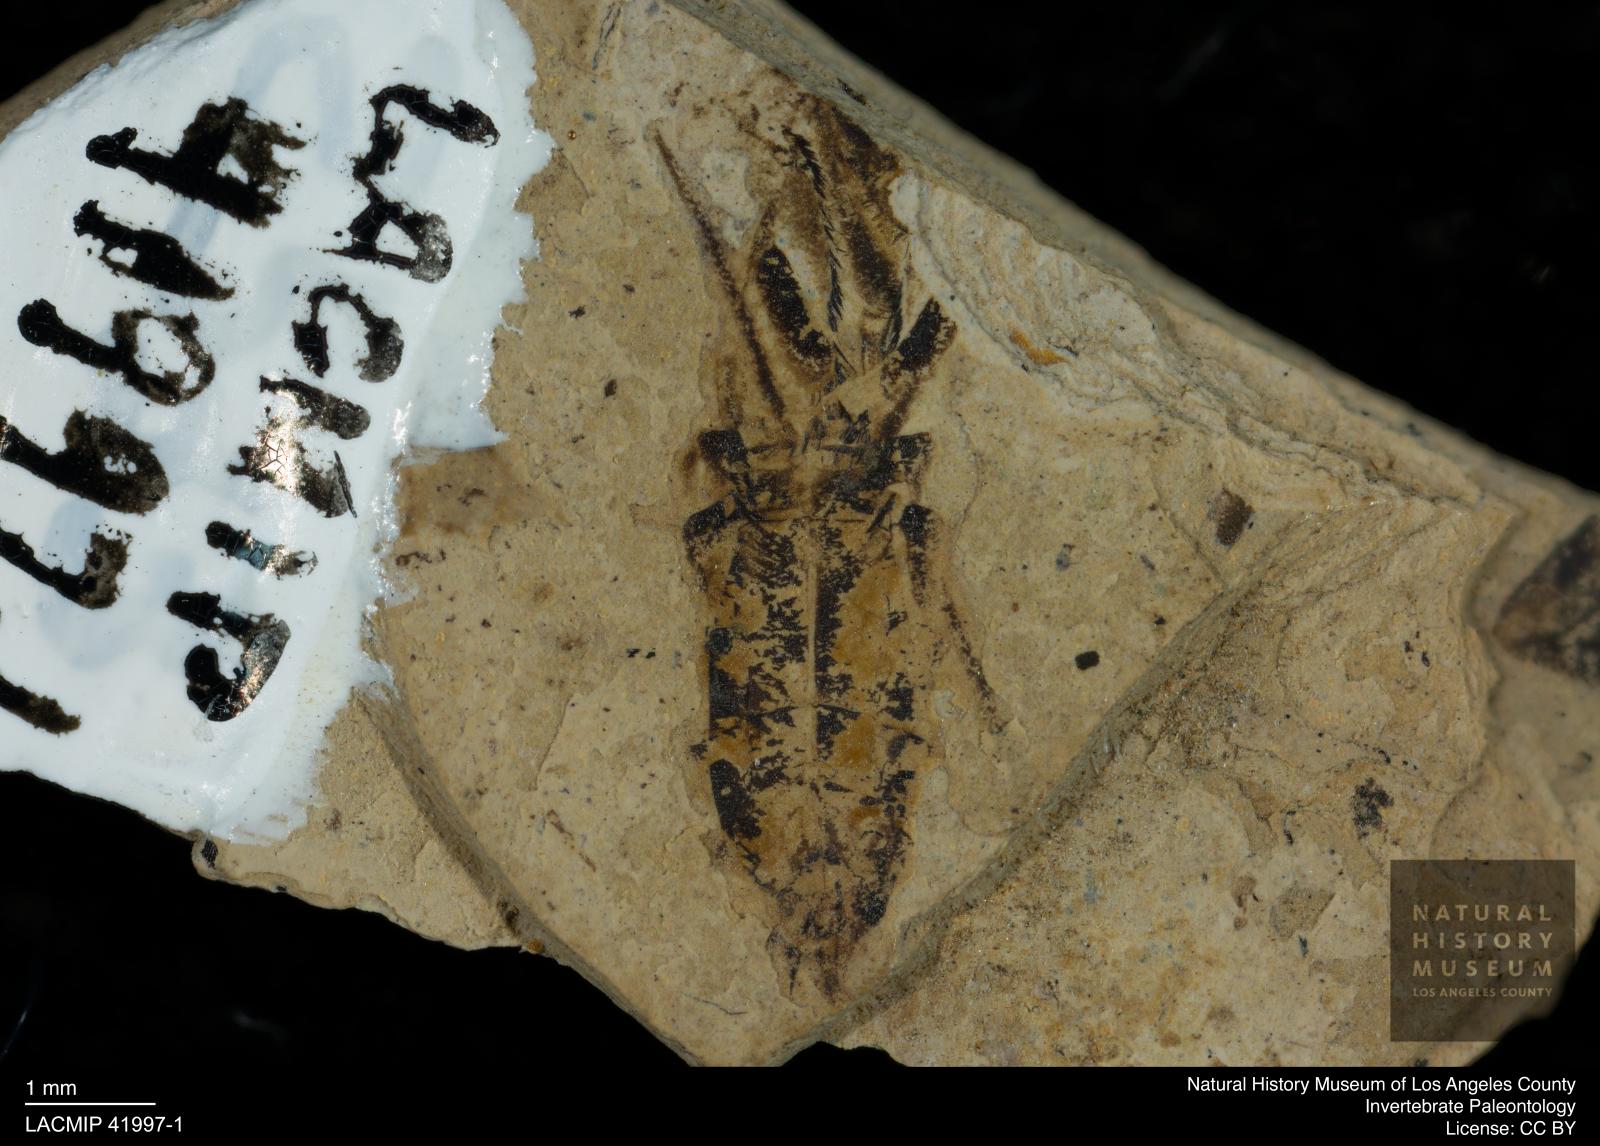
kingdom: Animalia
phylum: Arthropoda
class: Insecta
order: Hemiptera
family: Notonectidae
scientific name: Notonectidae
